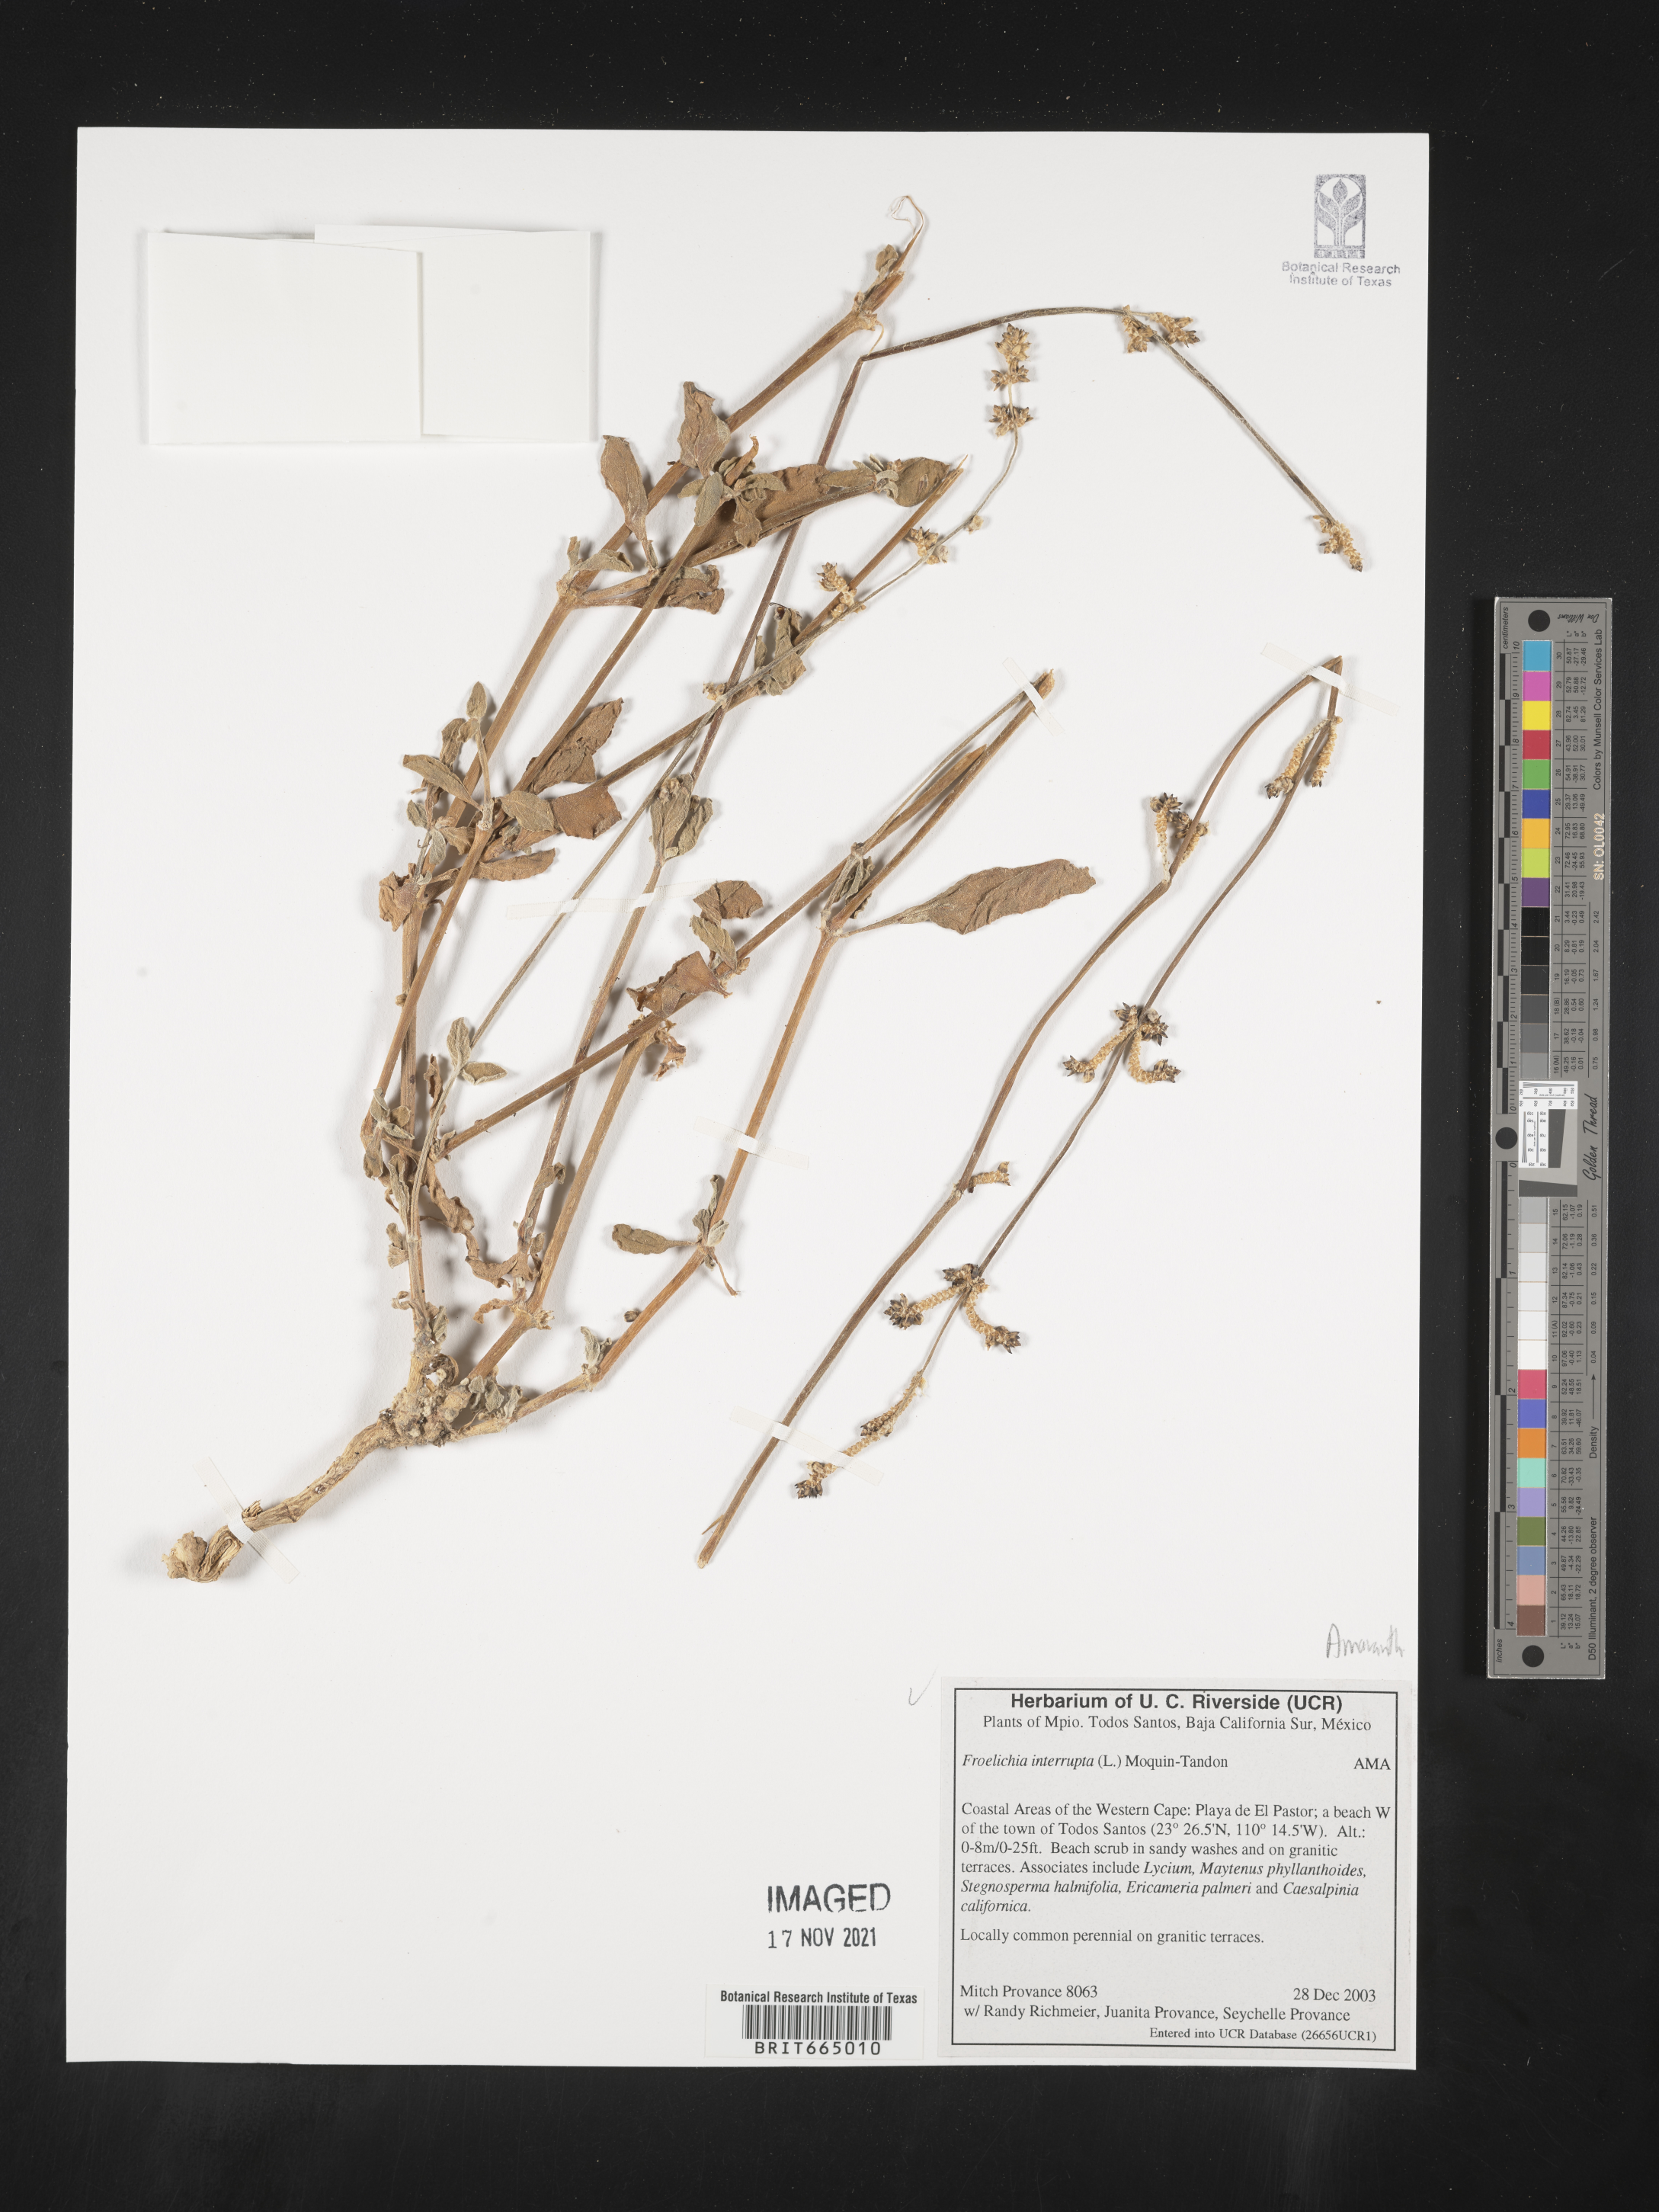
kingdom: Plantae
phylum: Tracheophyta
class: Magnoliopsida
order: Caryophyllales
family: Amaranthaceae
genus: Froelichia
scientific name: Froelichia
